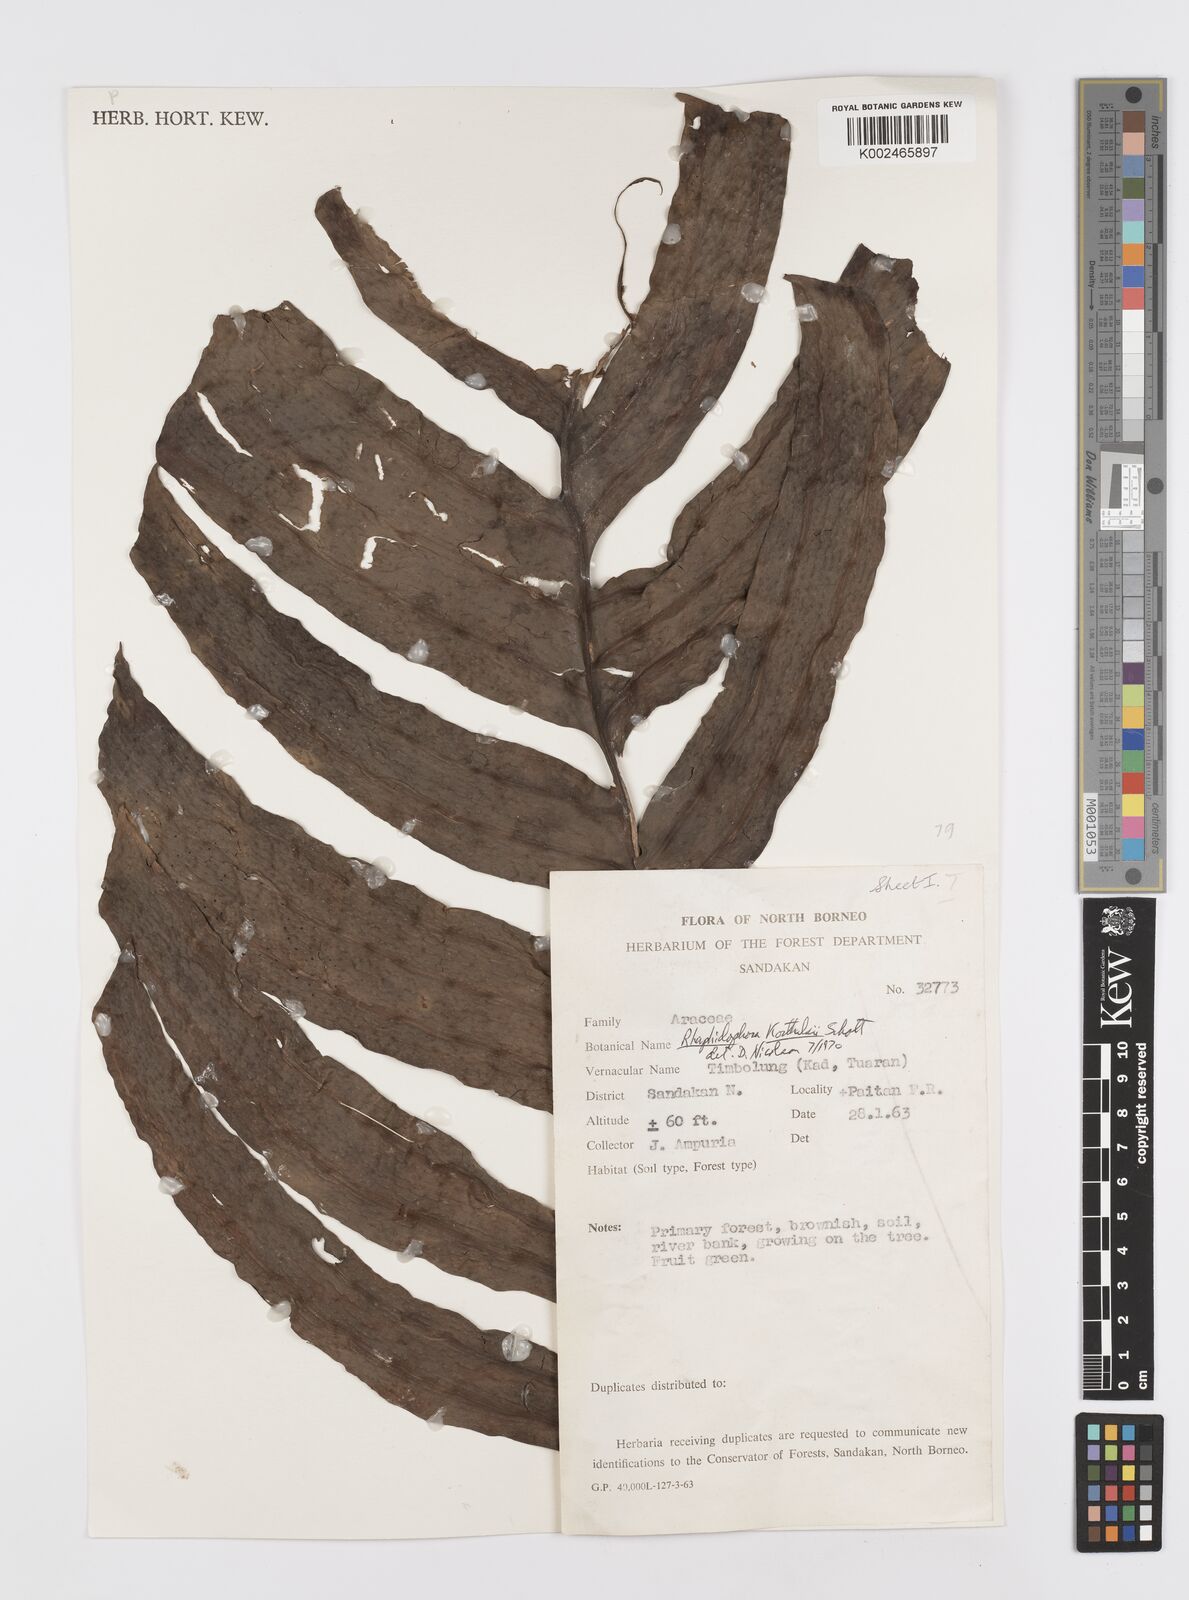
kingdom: Plantae
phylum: Tracheophyta
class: Liliopsida
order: Alismatales
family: Araceae
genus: Rhaphidophora
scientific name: Rhaphidophora korthalsii
